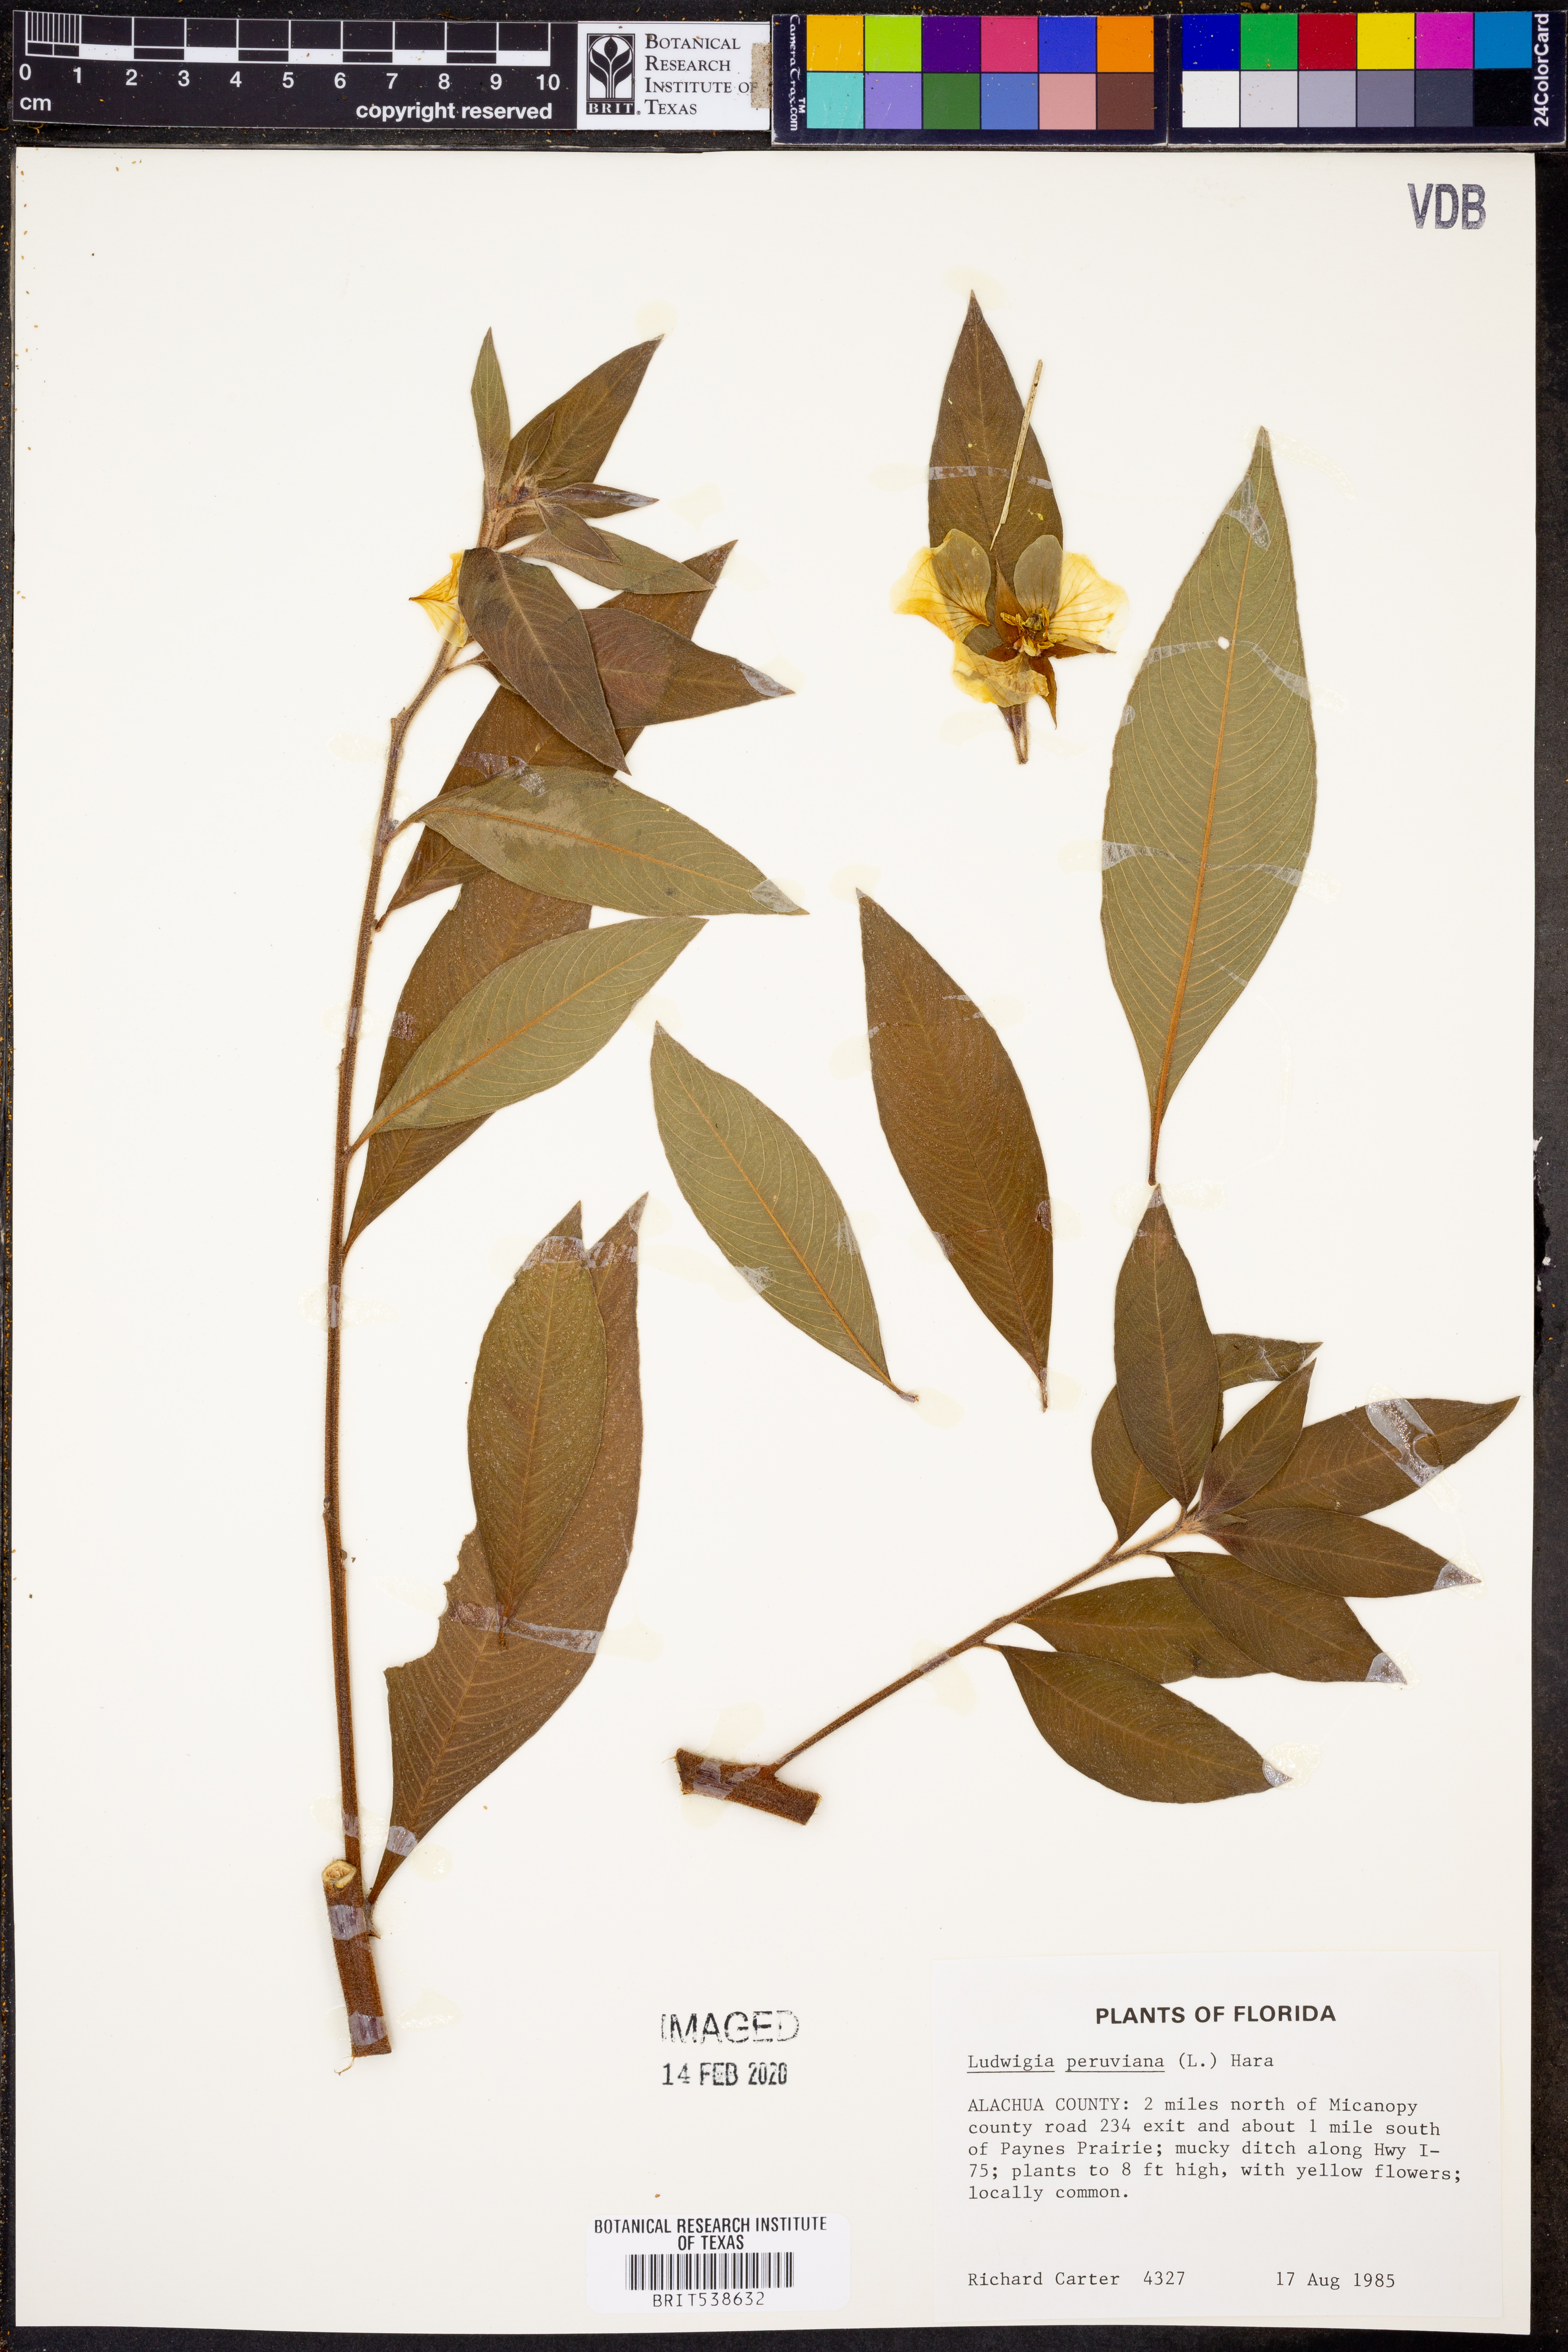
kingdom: Plantae
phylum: Tracheophyta
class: Magnoliopsida
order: Myrtales
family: Onagraceae
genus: Ludwigia
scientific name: Ludwigia peruviana
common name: Peruvian primrose-willow
